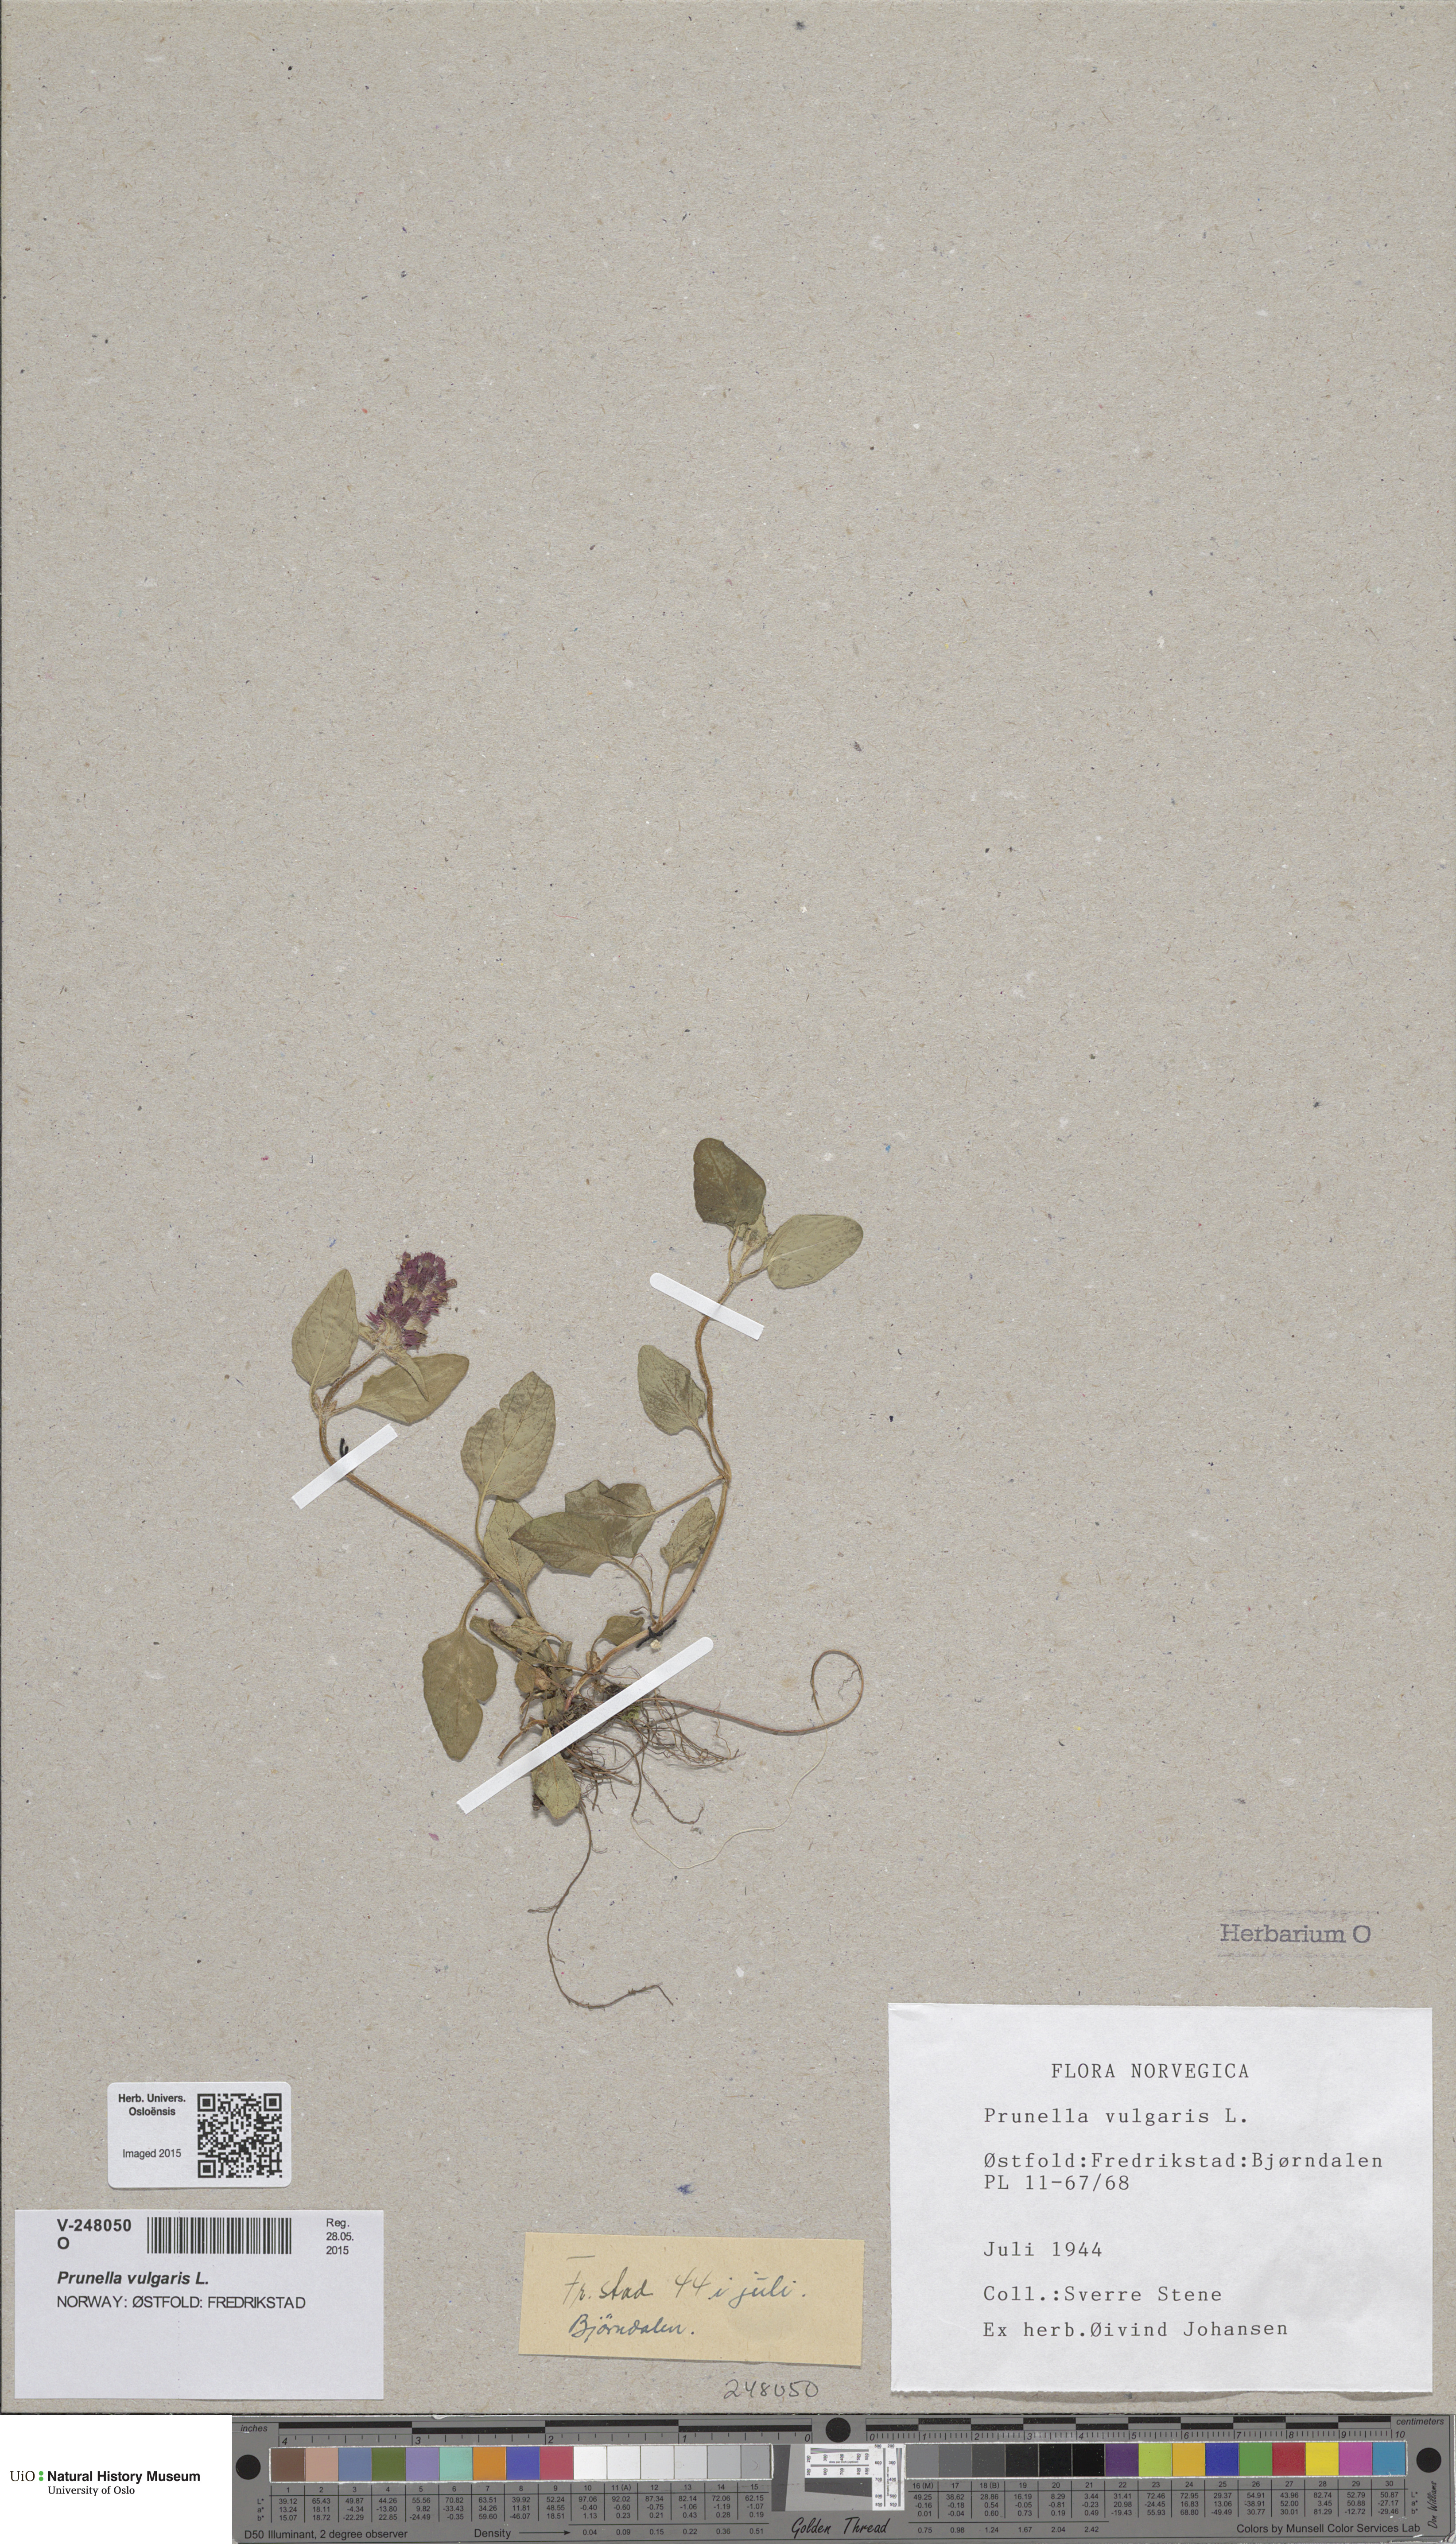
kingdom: Plantae
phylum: Tracheophyta
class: Magnoliopsida
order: Lamiales
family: Lamiaceae
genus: Prunella
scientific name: Prunella vulgaris
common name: Heal-all
